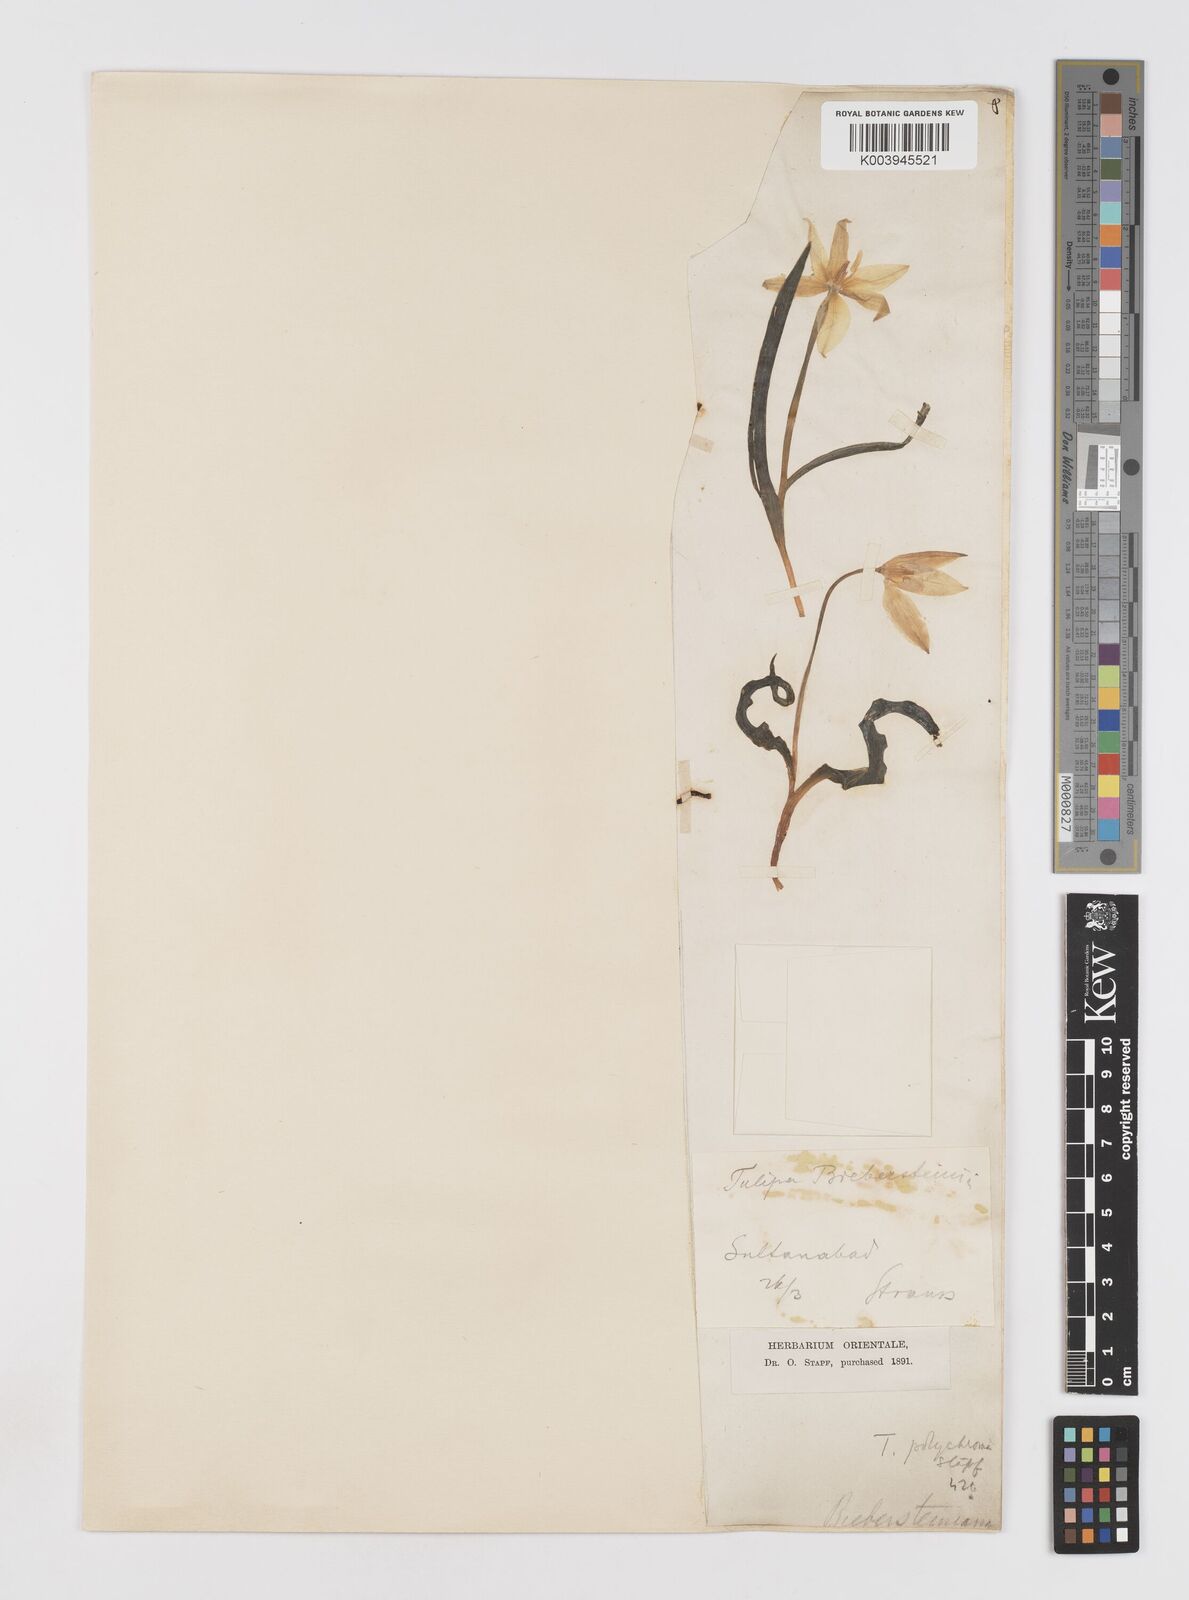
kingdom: Plantae
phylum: Tracheophyta
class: Liliopsida
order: Liliales
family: Liliaceae
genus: Tulipa
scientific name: Tulipa biflora
